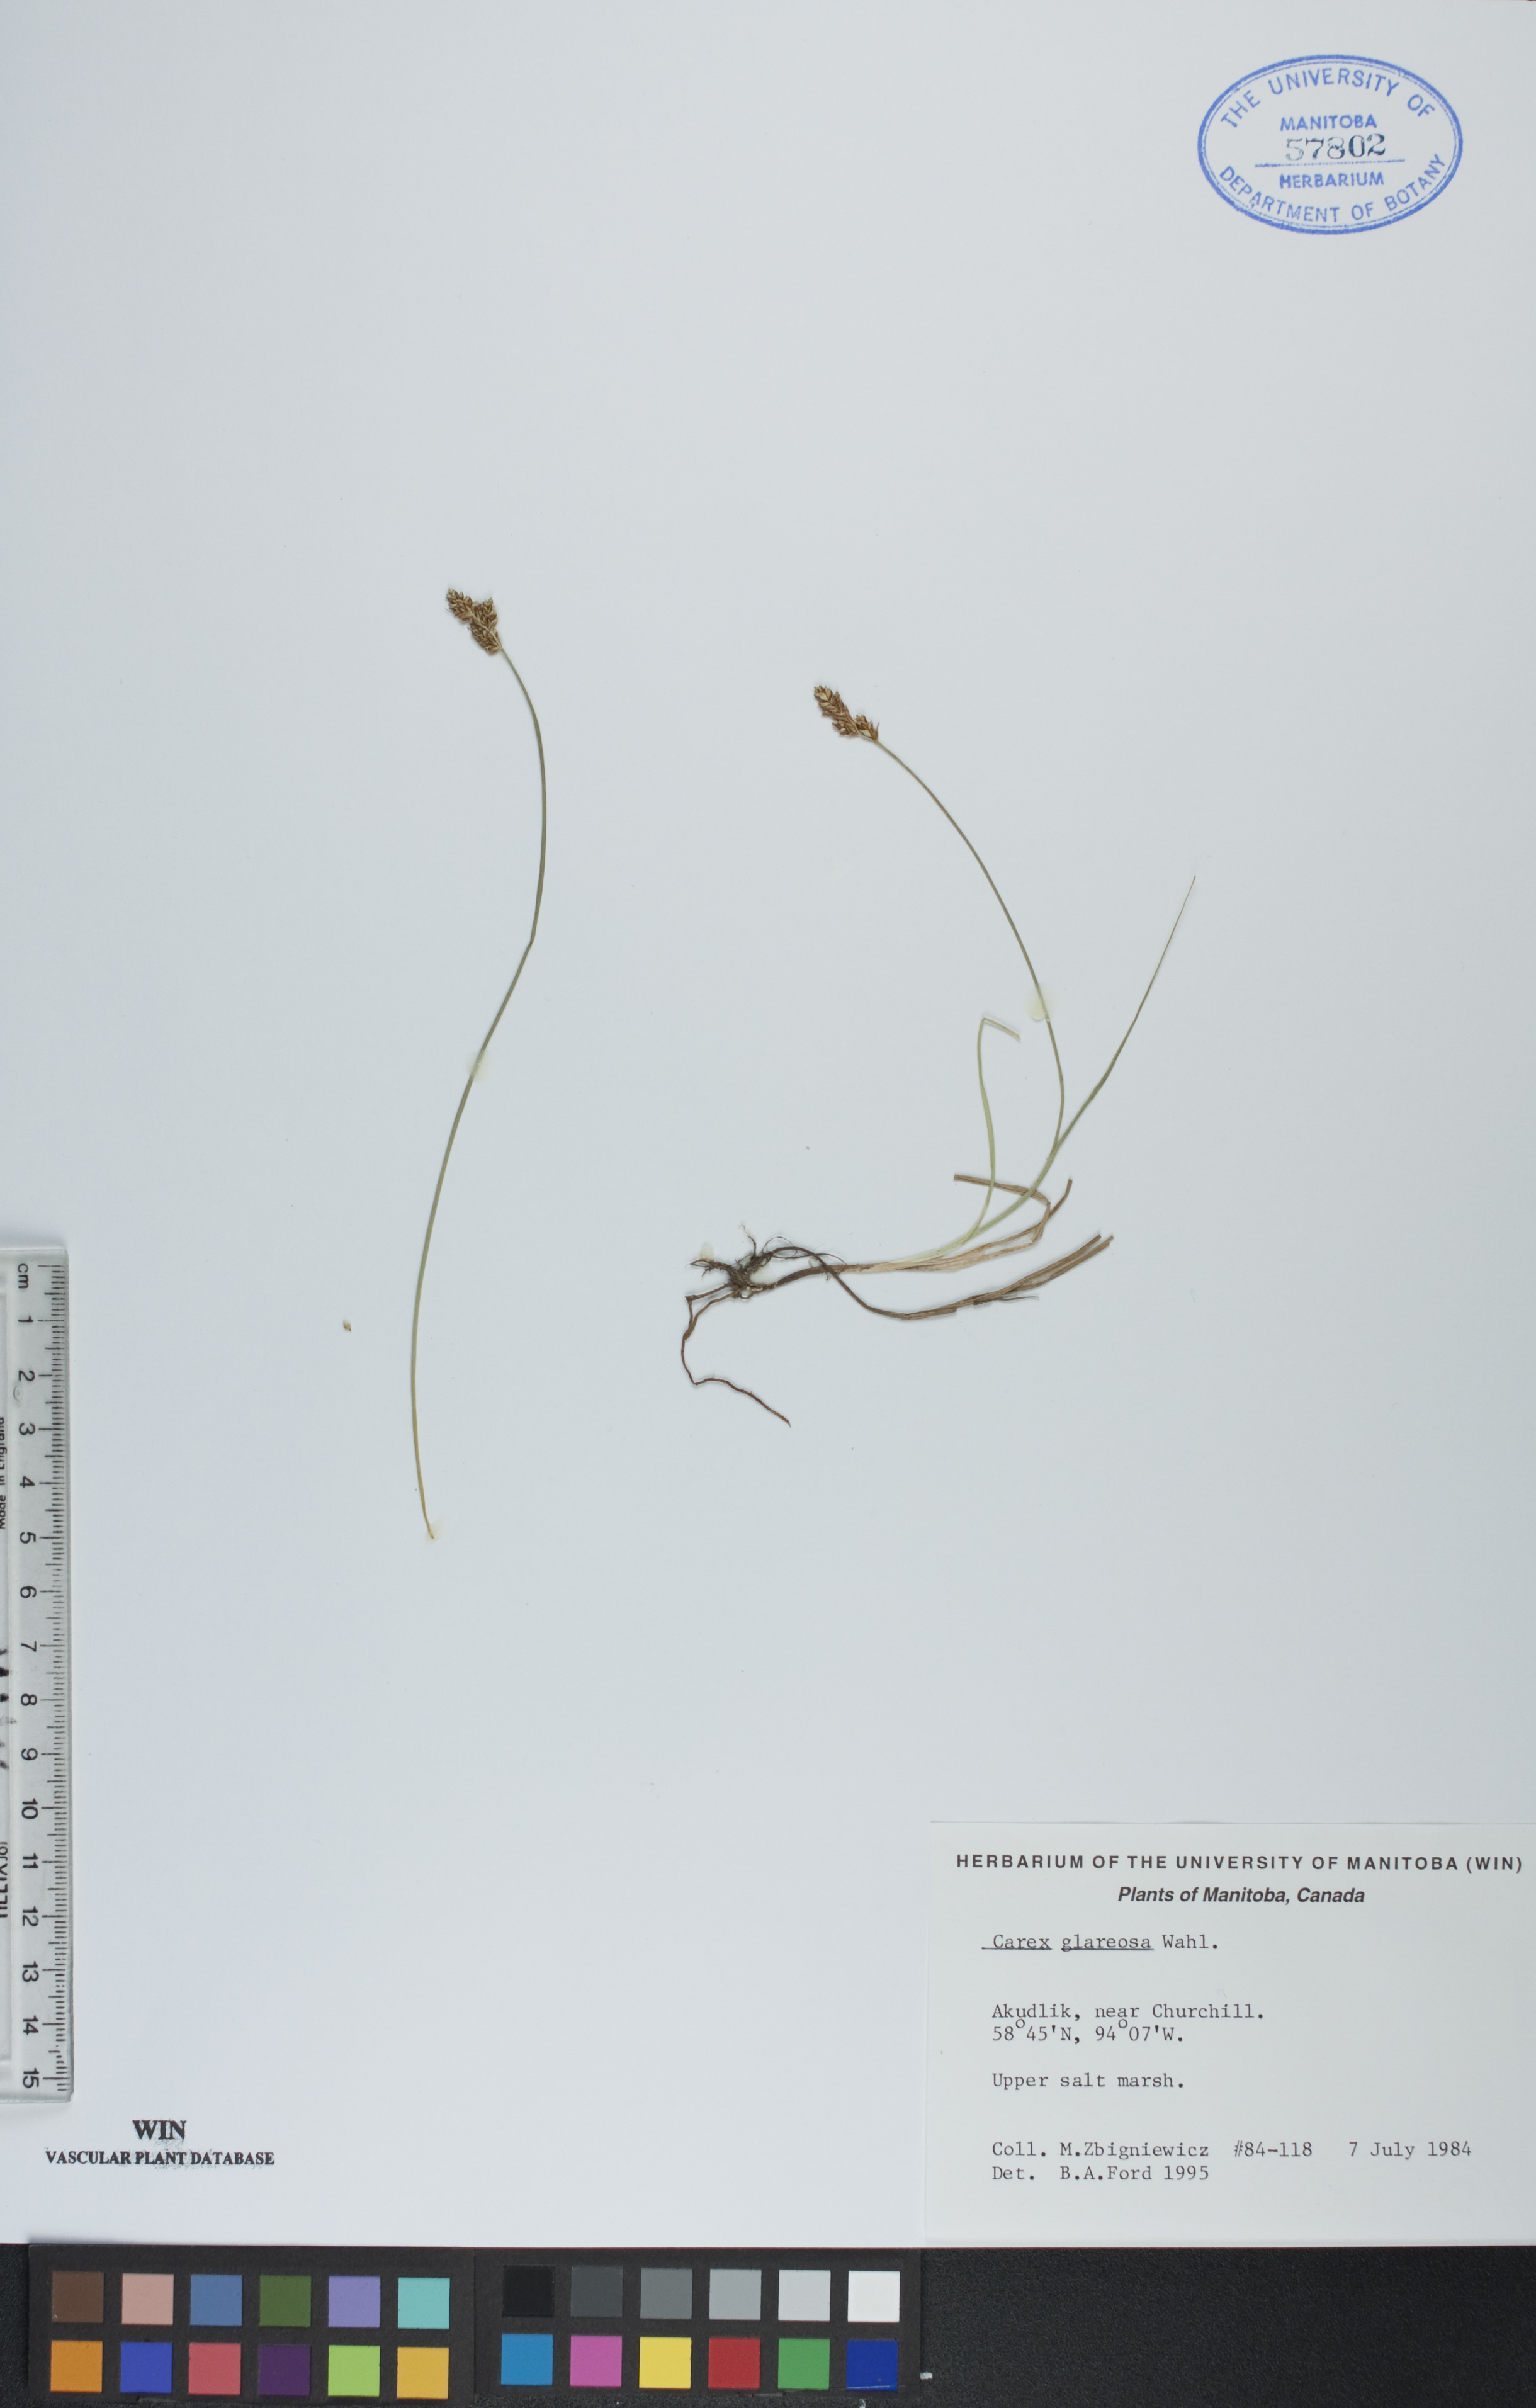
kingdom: Plantae
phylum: Tracheophyta
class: Liliopsida
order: Poales
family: Cyperaceae
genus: Carex
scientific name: Carex glareosa
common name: Clustered sedge
